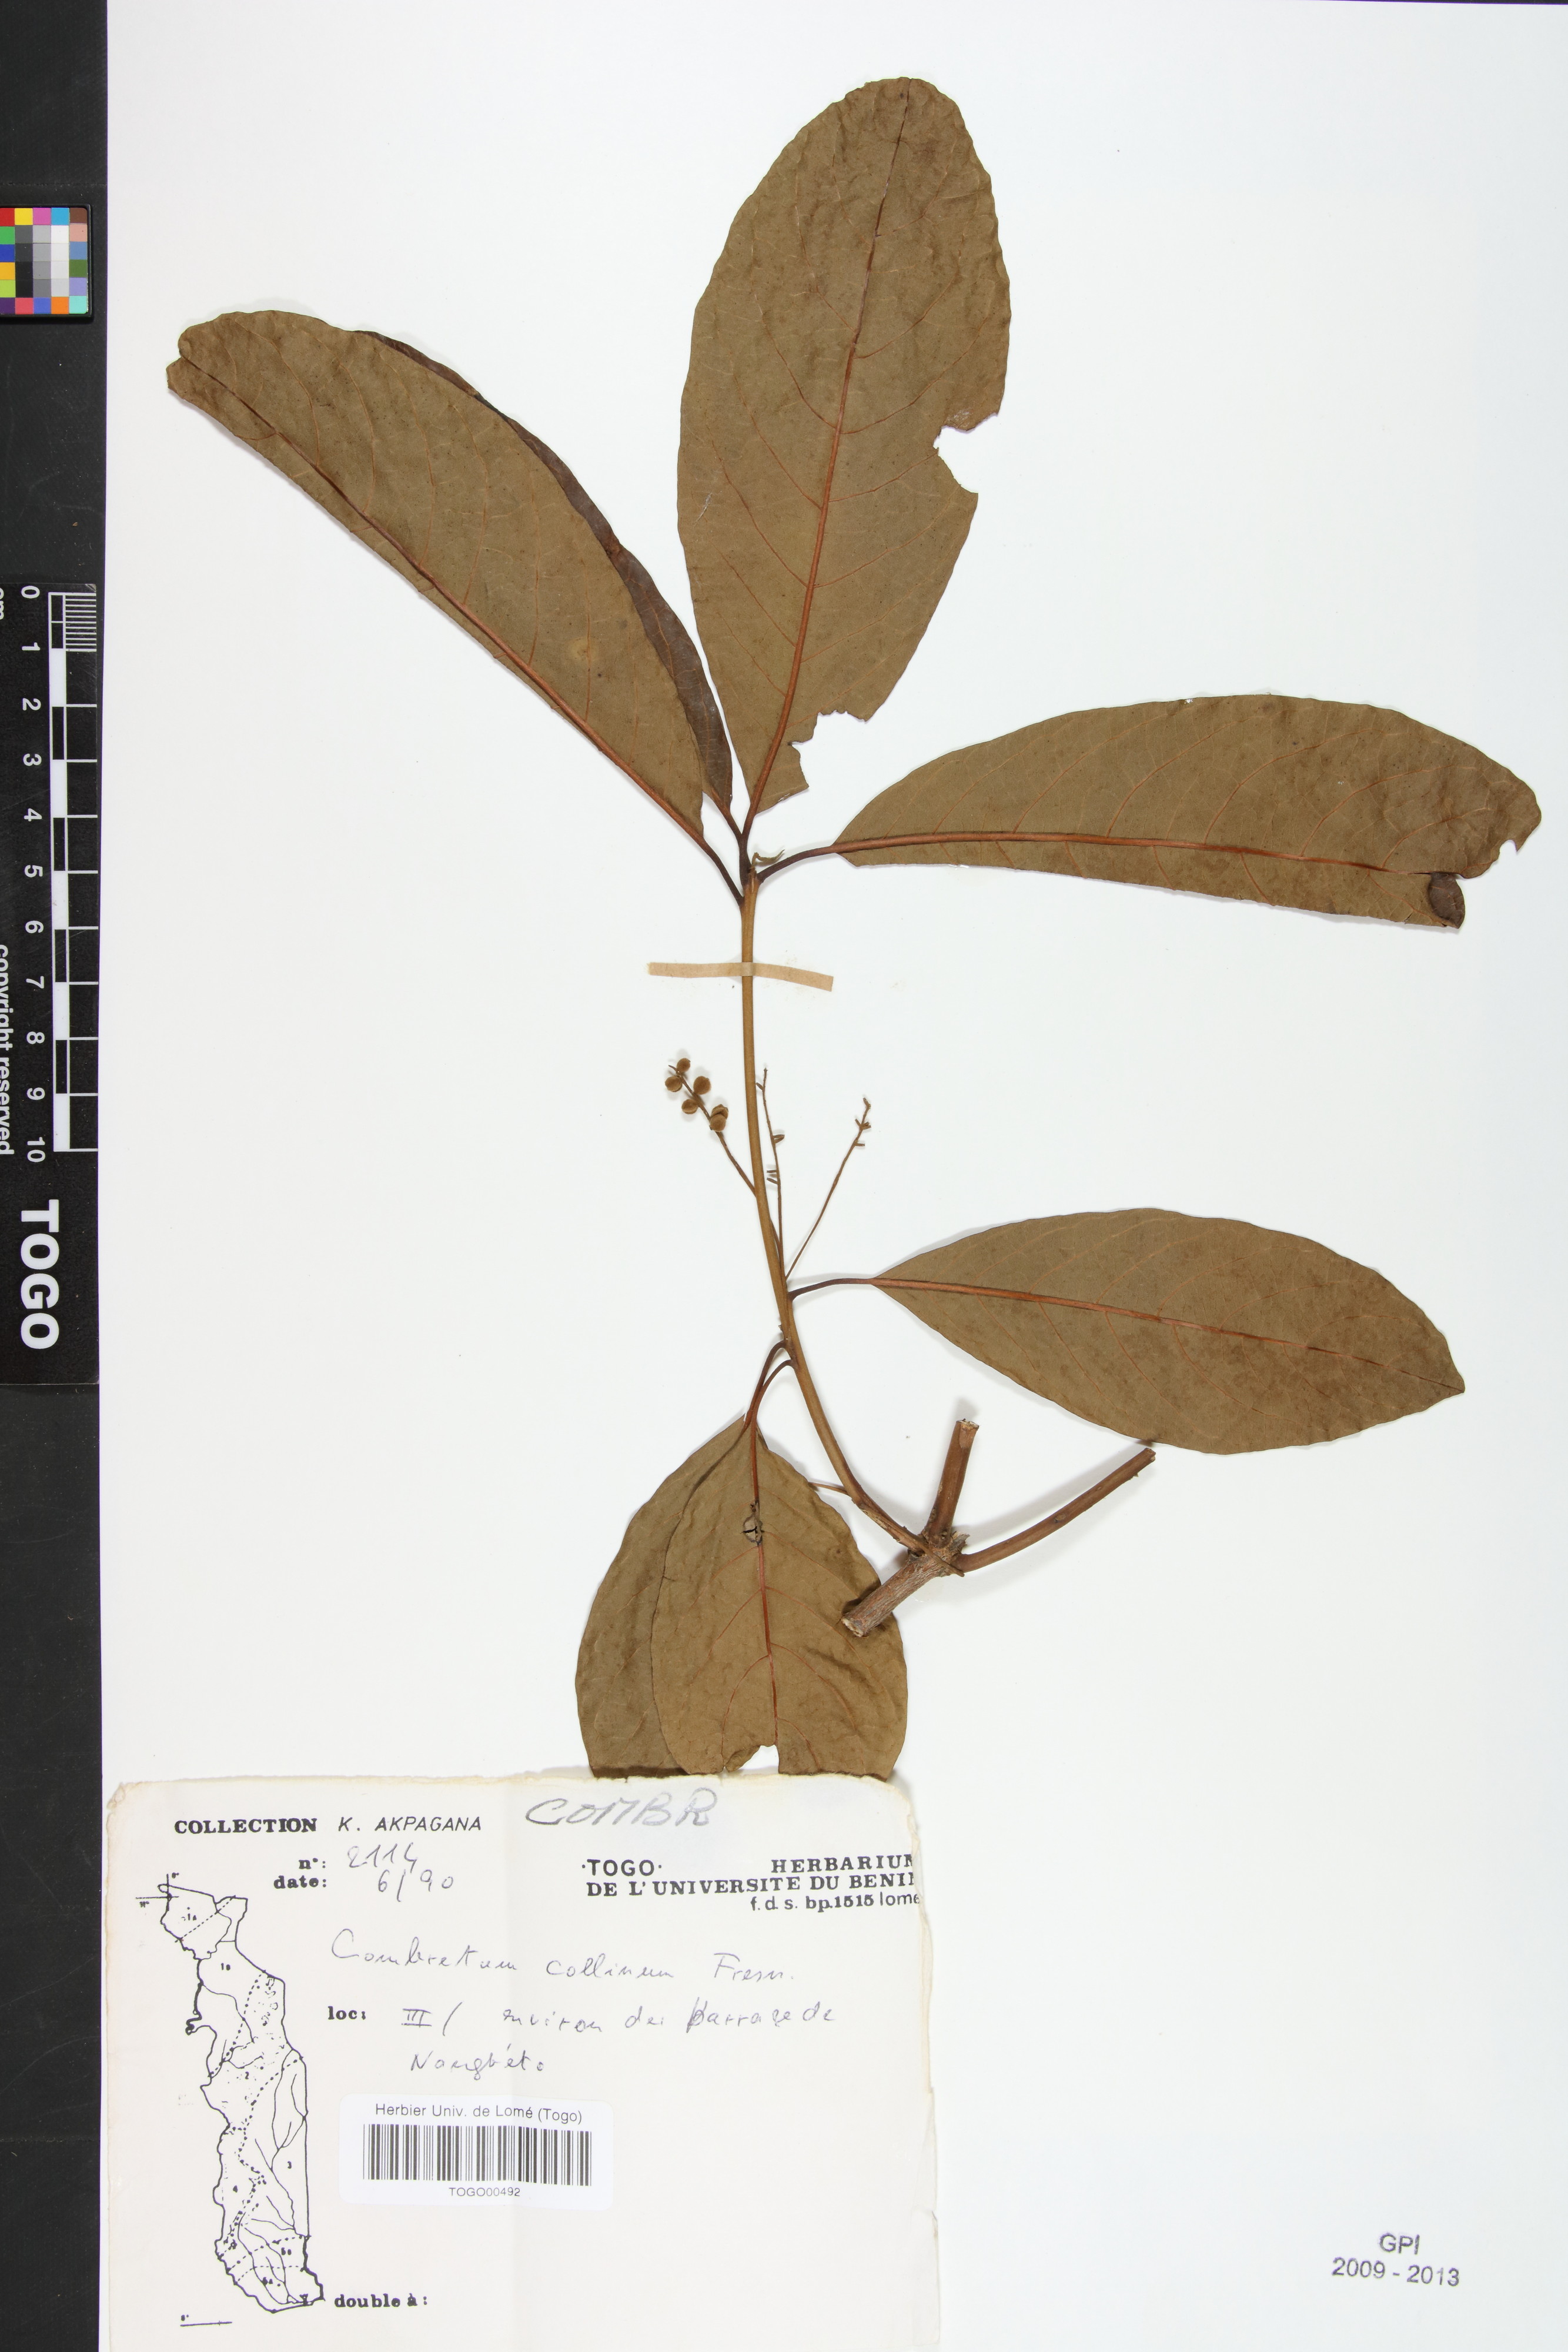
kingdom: Plantae
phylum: Tracheophyta
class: Magnoliopsida
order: Myrtales
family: Combretaceae
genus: Combretum
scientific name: Combretum collinum
